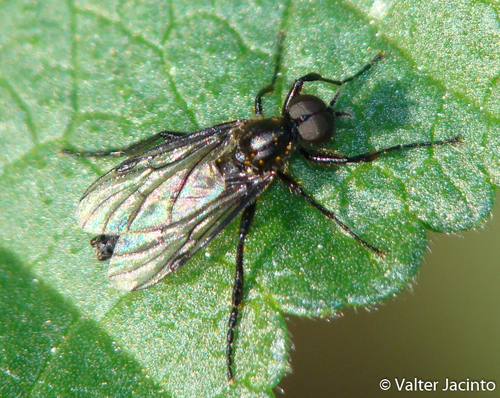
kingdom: Animalia
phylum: Arthropoda
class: Insecta
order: Diptera
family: Bibionidae
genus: Bibio
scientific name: Bibio gineri
